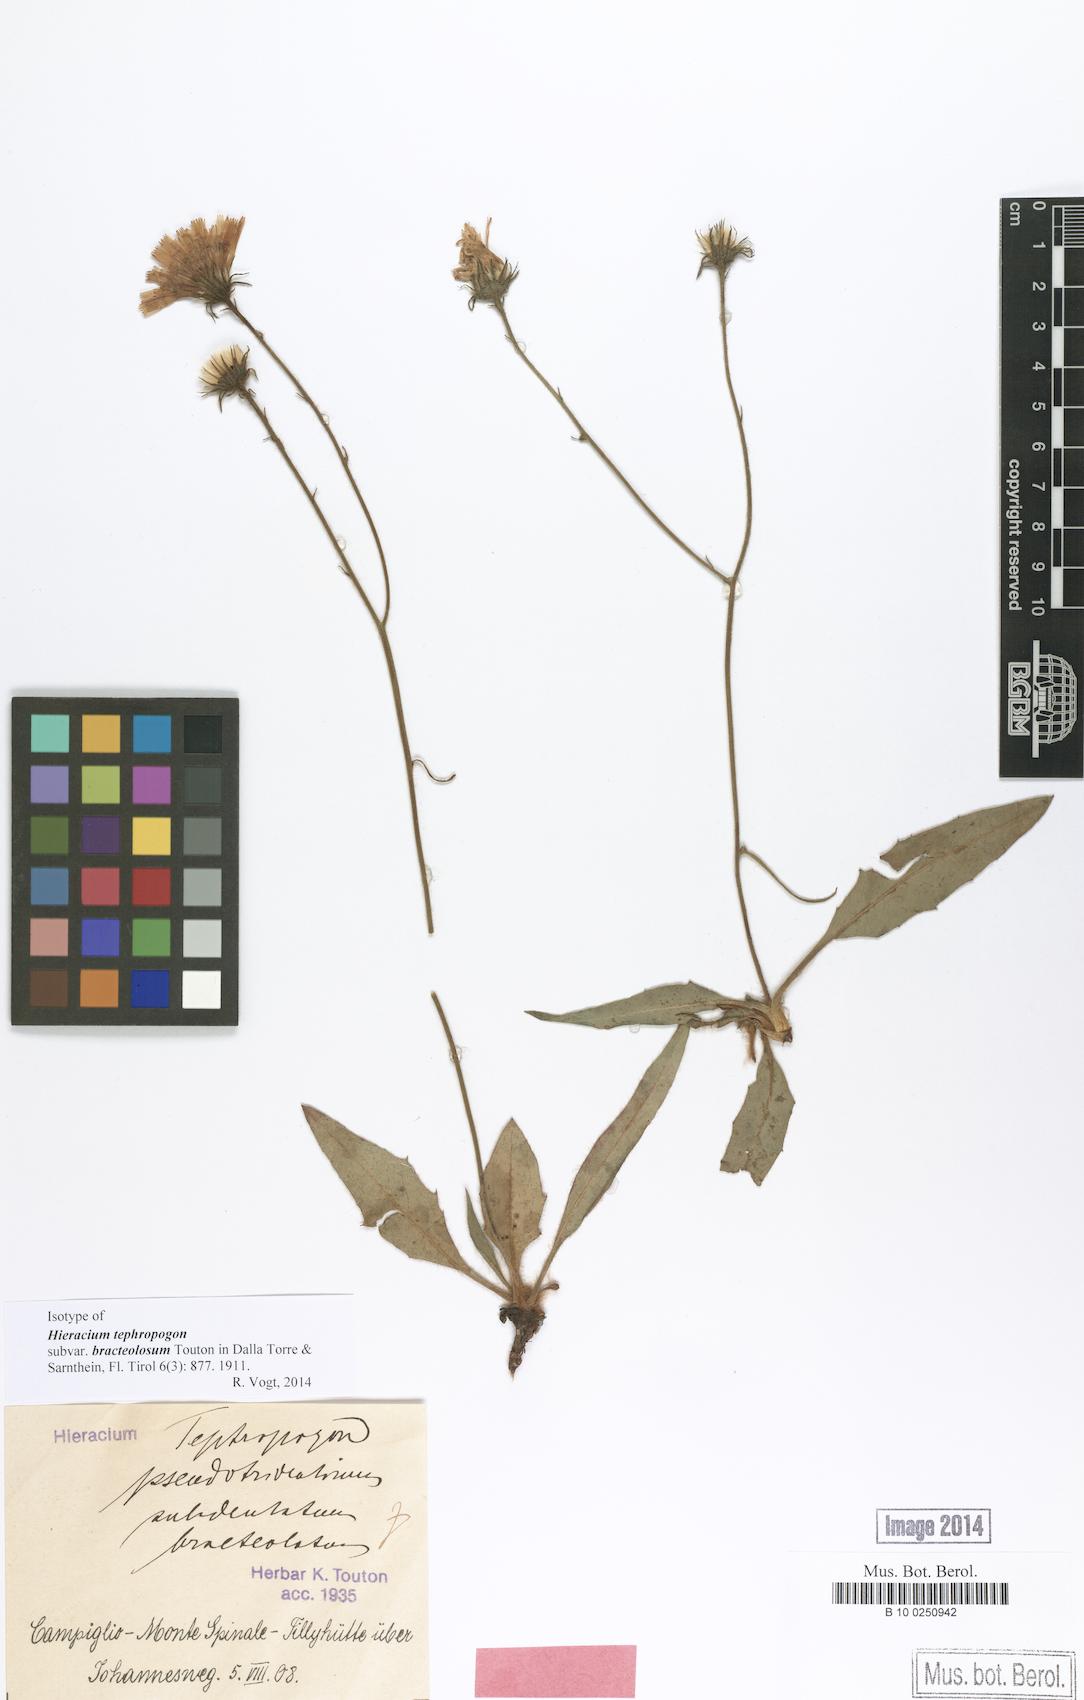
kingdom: Plantae
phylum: Tracheophyta
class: Magnoliopsida
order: Asterales
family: Asteraceae
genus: Hieracium
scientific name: Hieracium tephropogon
